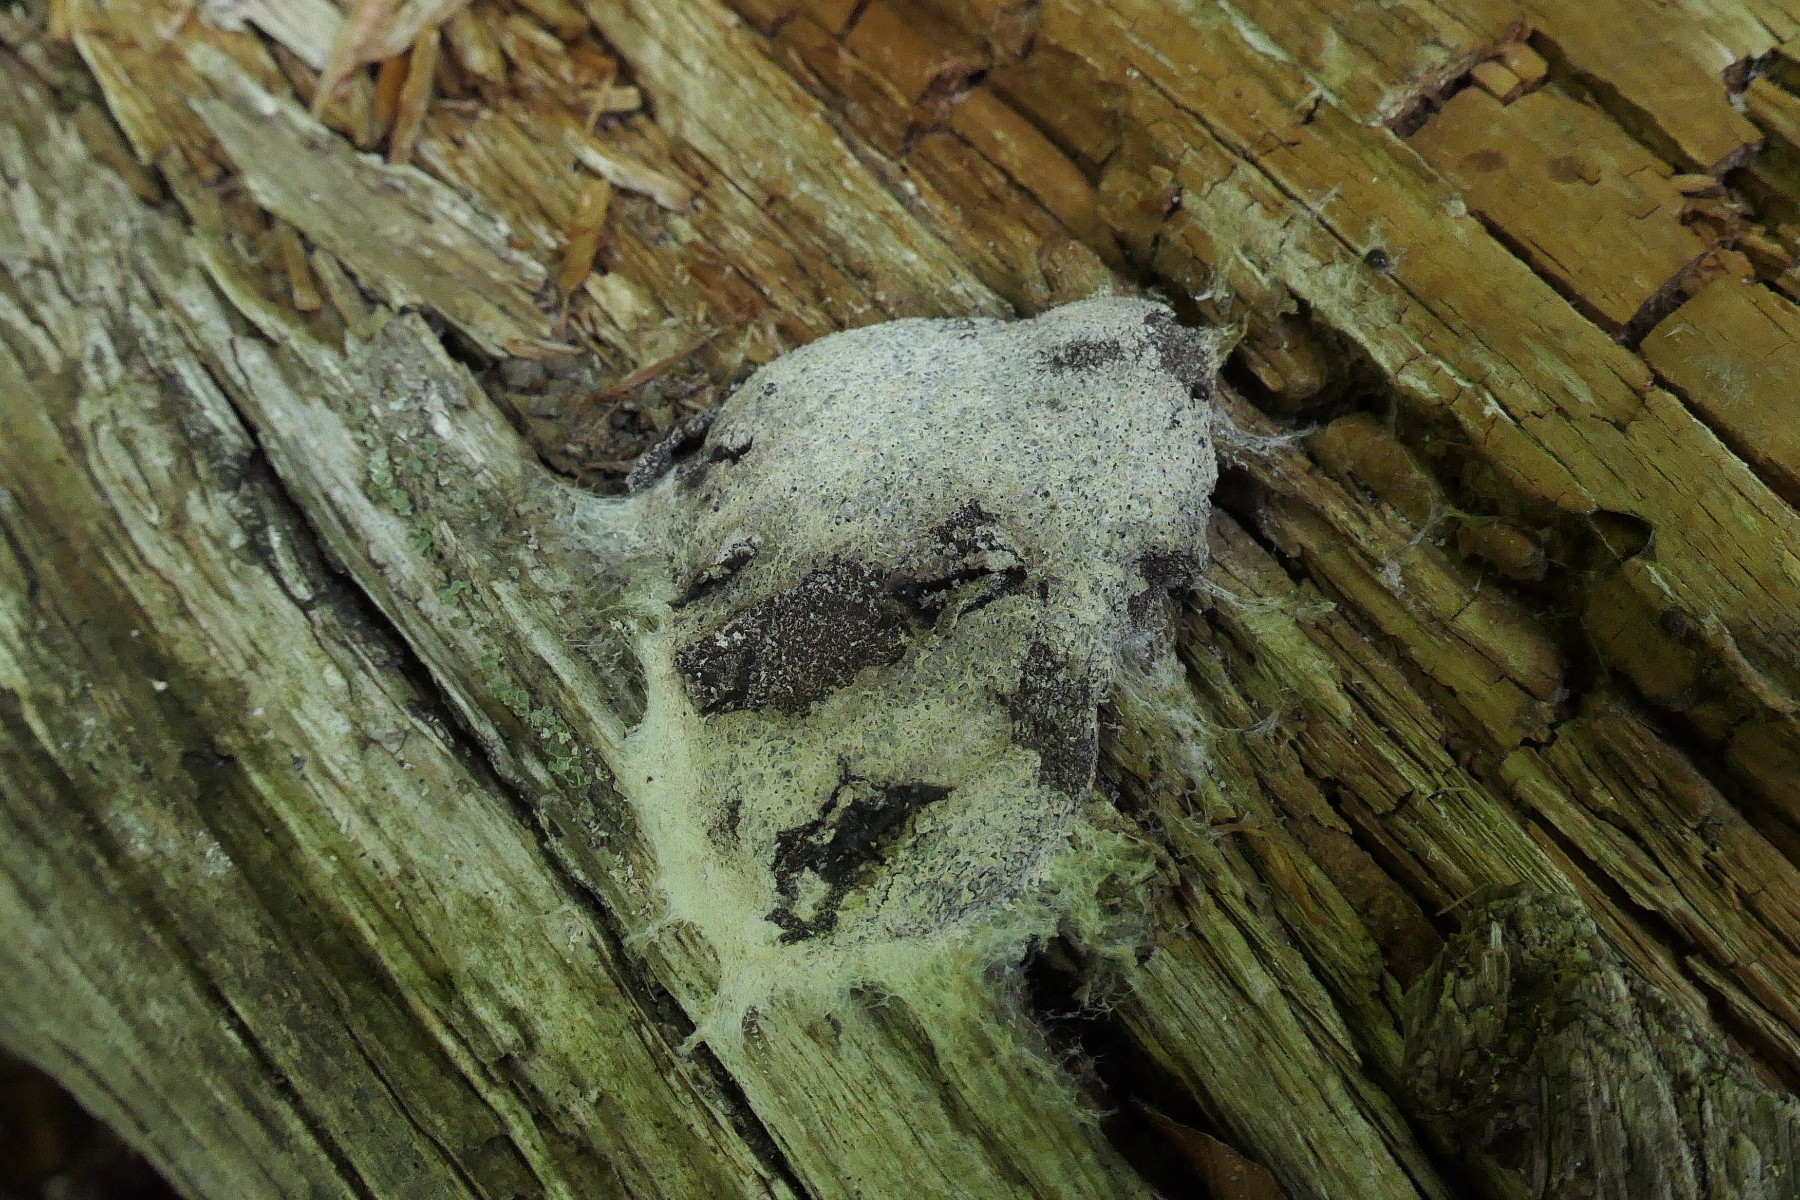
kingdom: Protozoa
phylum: Mycetozoa
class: Myxomycetes
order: Physarales
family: Physaraceae
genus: Fuligo
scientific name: Fuligo septica
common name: gul troldsmør
